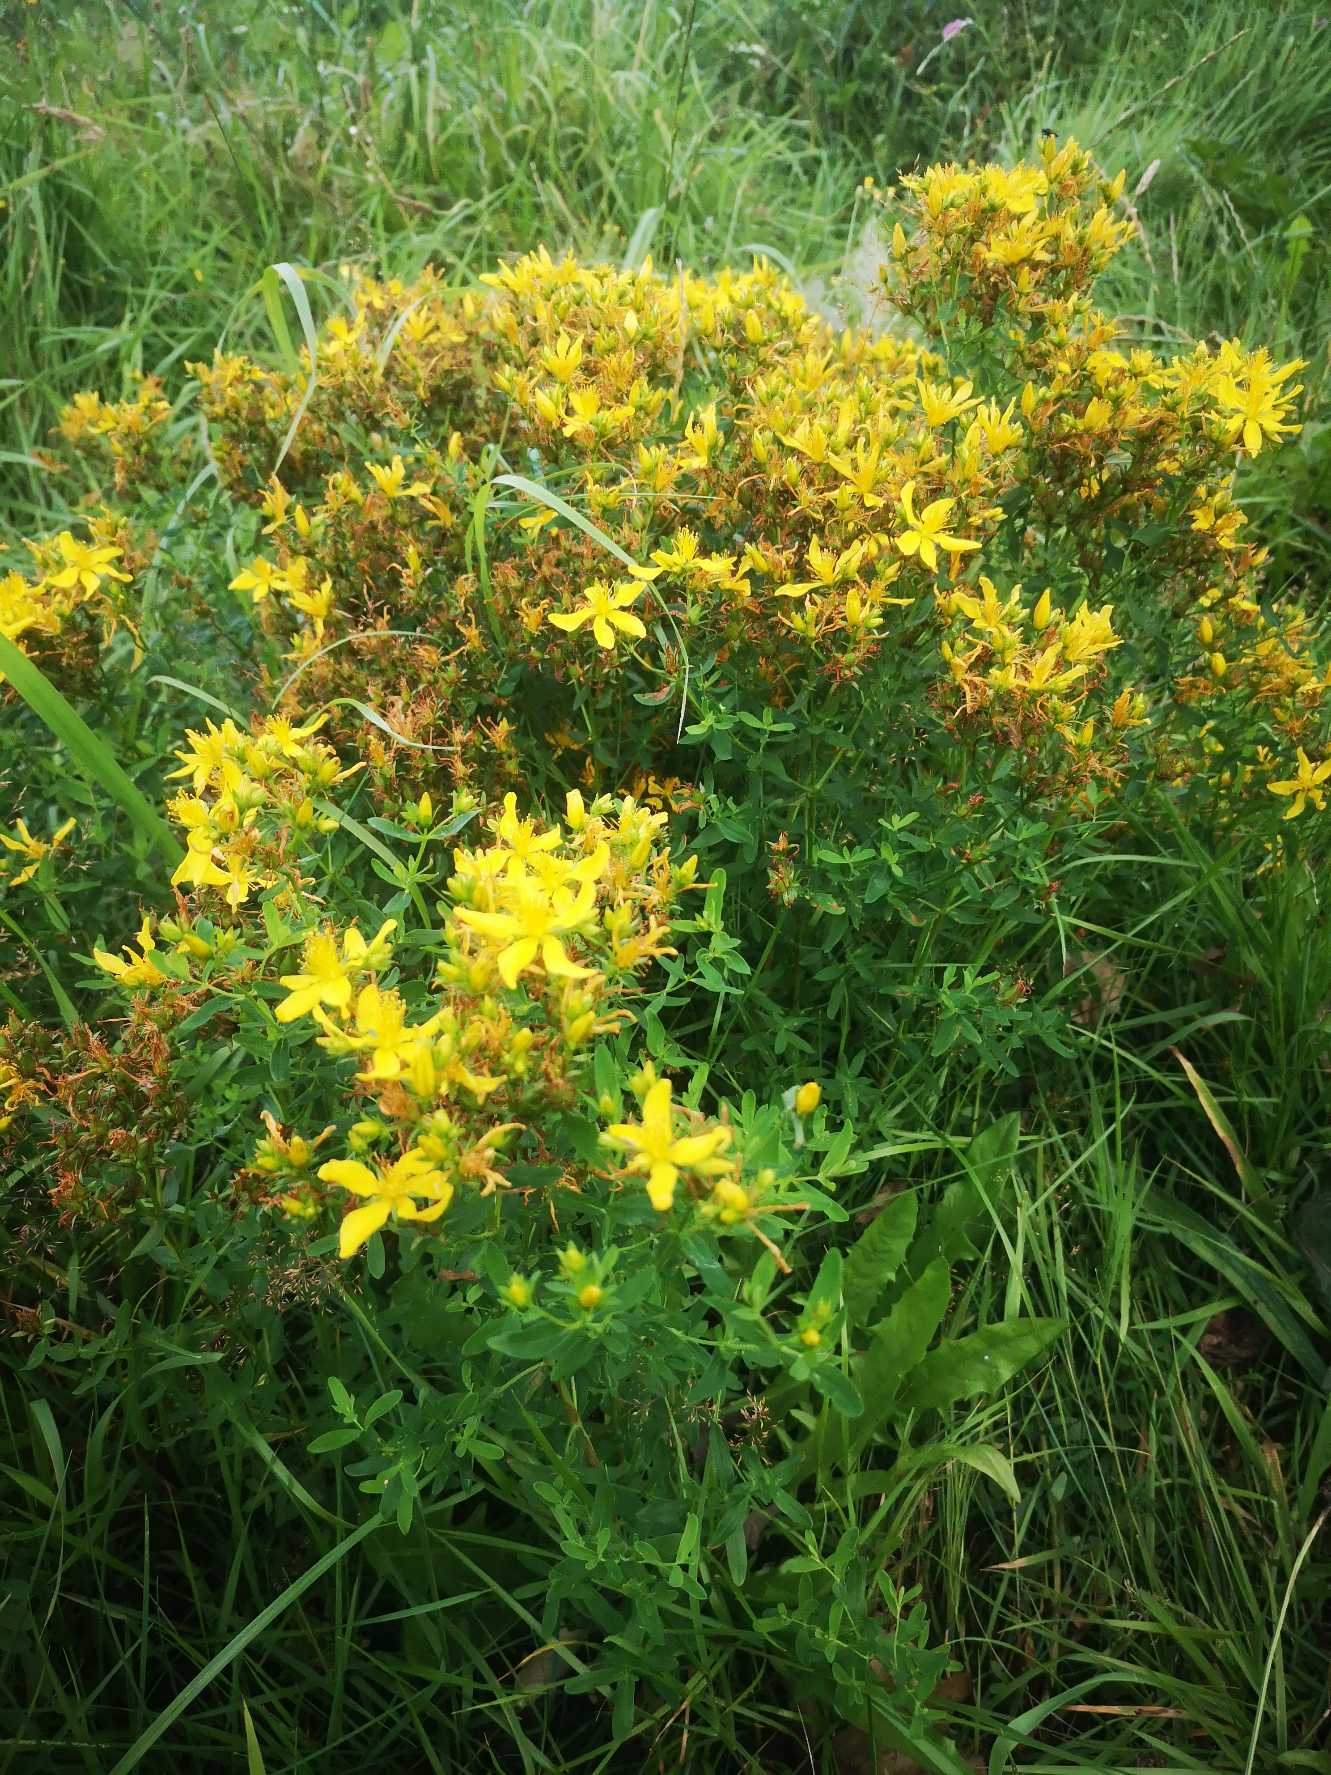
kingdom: Plantae
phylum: Tracheophyta
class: Magnoliopsida
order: Malpighiales
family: Hypericaceae
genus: Hypericum
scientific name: Hypericum perforatum
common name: Prikbladet perikon
